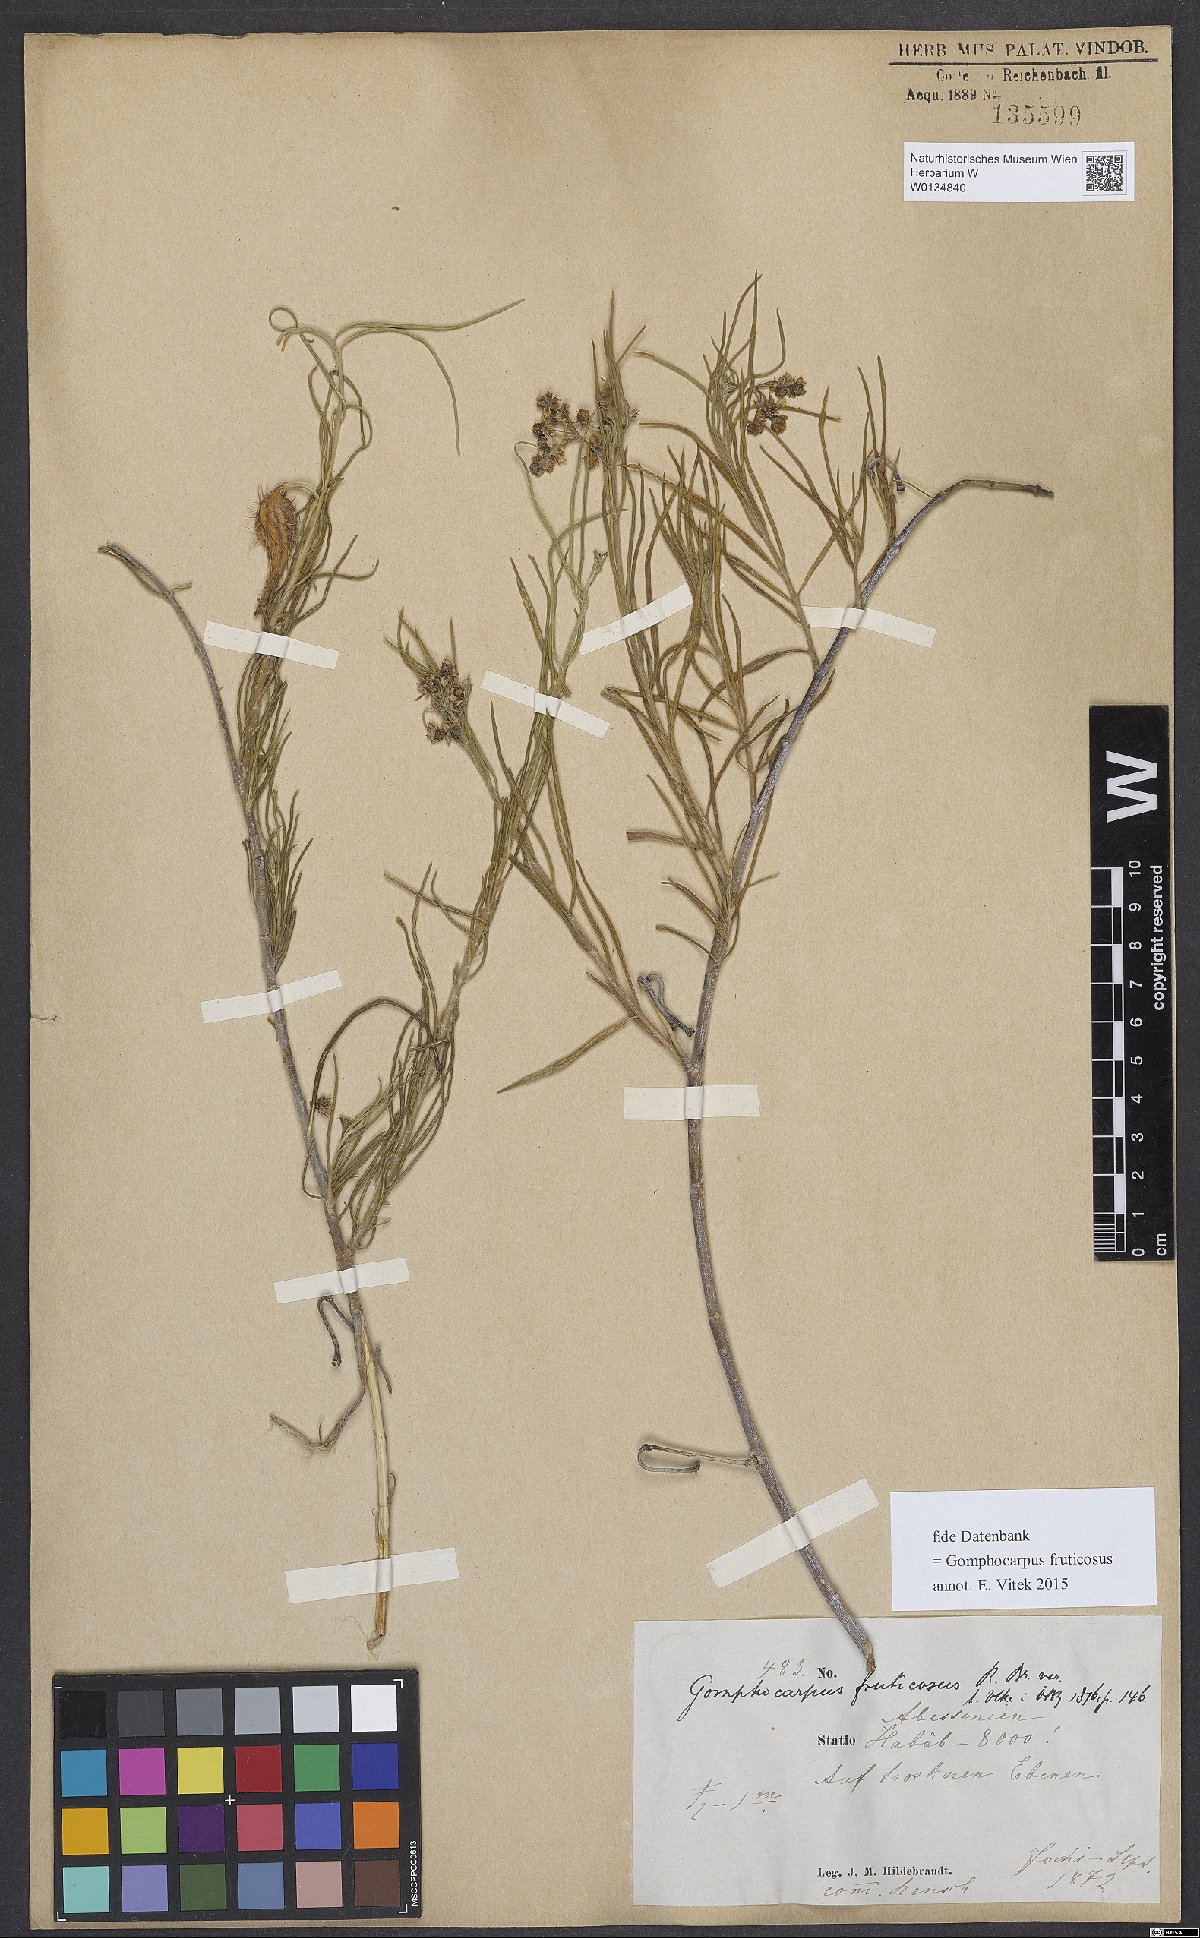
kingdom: Plantae
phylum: Tracheophyta
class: Magnoliopsida
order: Gentianales
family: Apocynaceae
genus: Gomphocarpus
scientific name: Gomphocarpus fruticosus
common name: Milkweed
